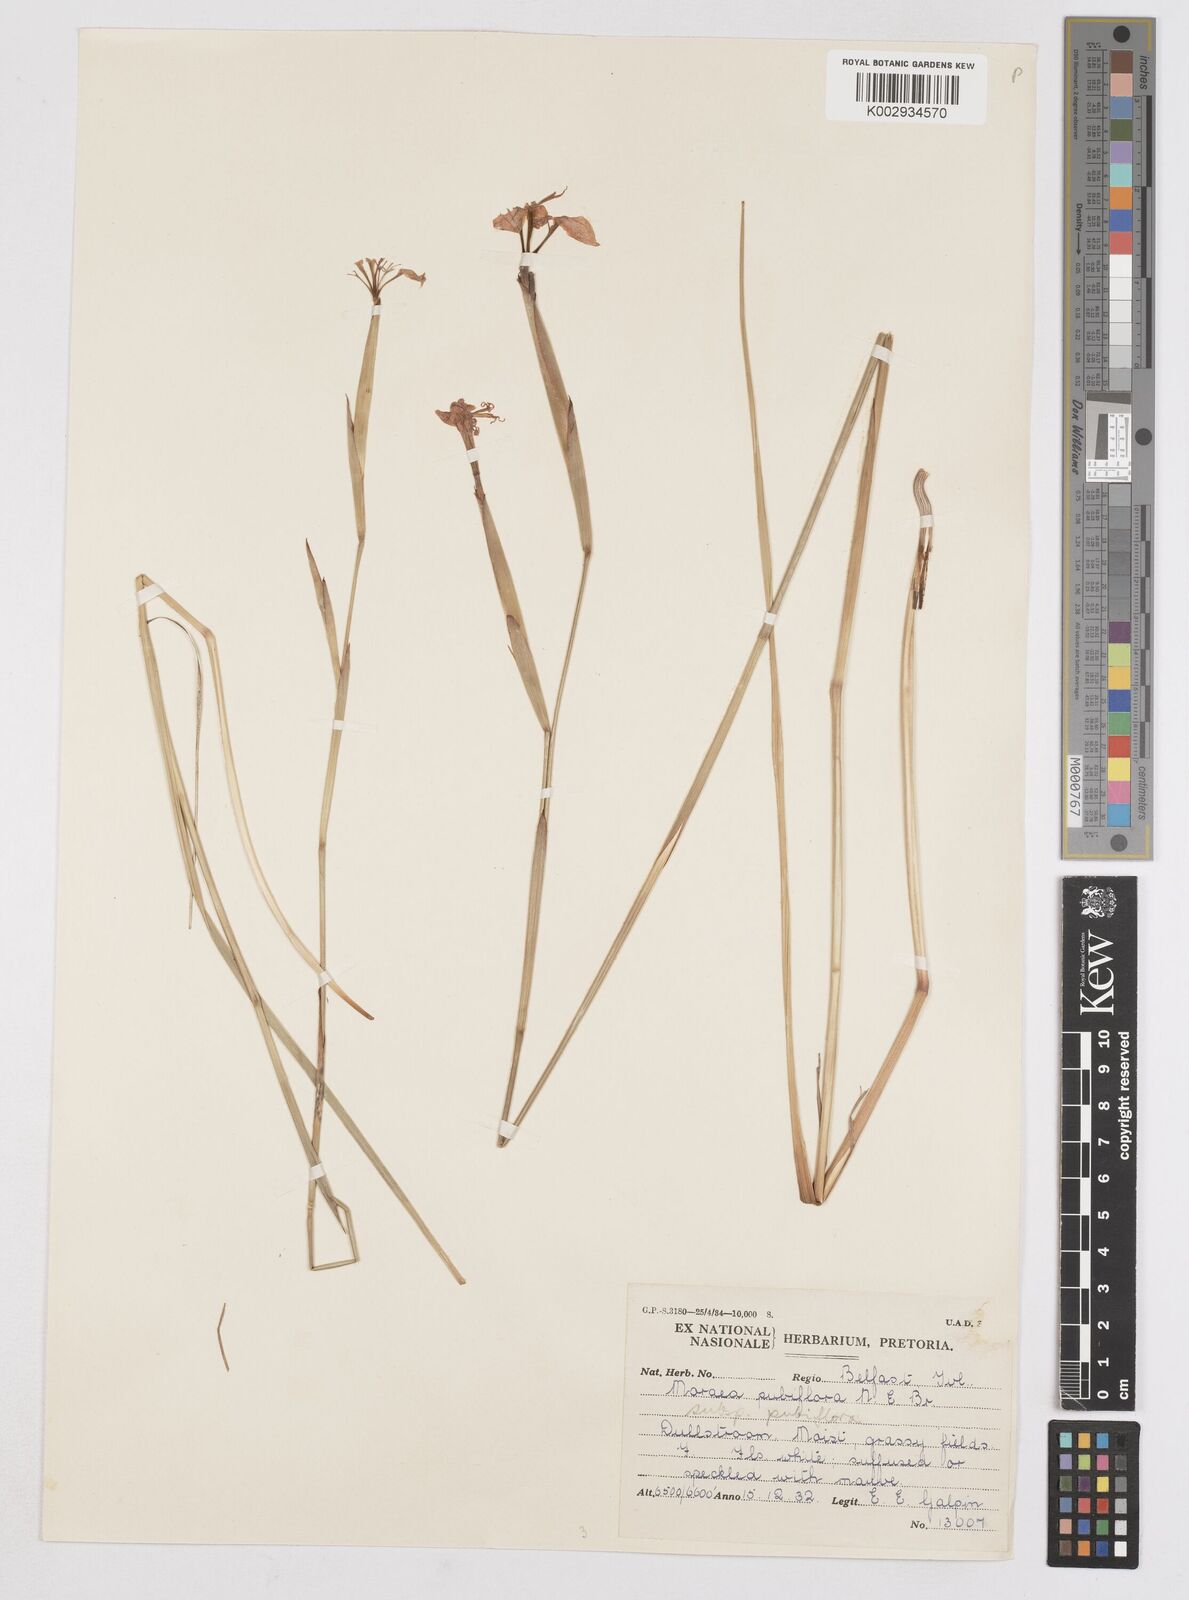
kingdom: Plantae
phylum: Tracheophyta
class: Liliopsida
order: Asparagales
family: Iridaceae
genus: Moraea
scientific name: Moraea pubiflora
